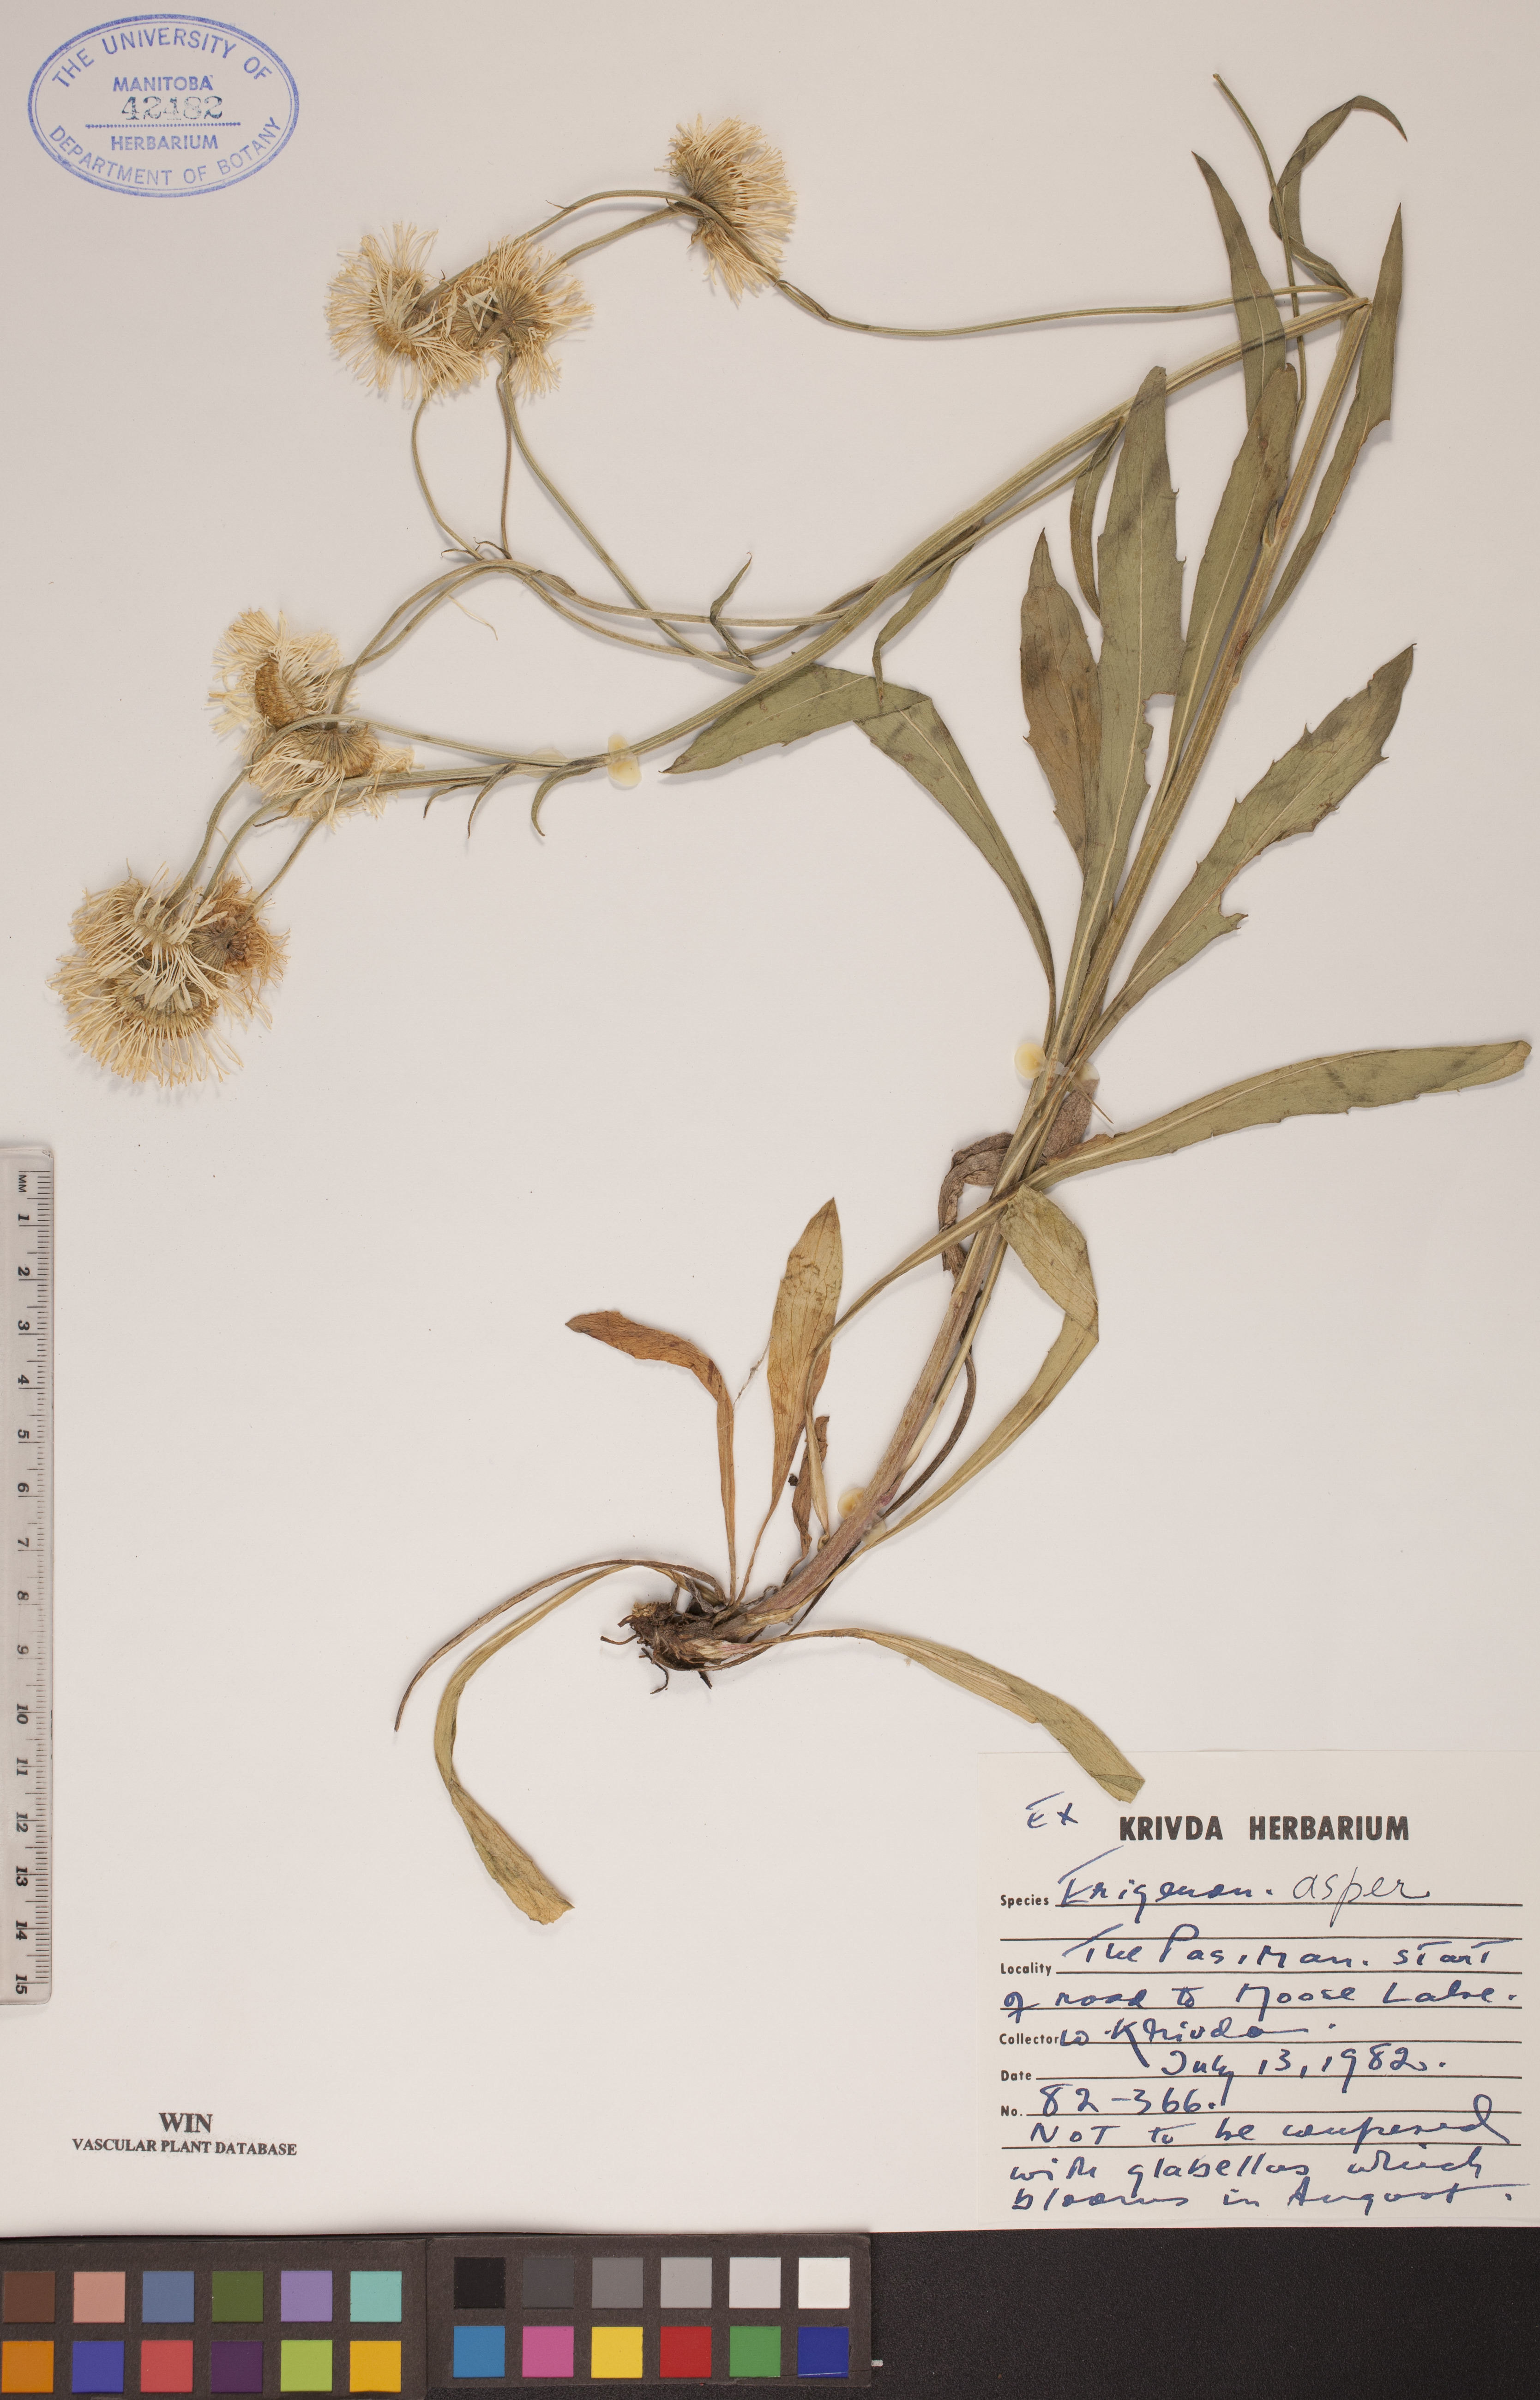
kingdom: Plantae
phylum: Tracheophyta
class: Magnoliopsida
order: Asterales
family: Asteraceae
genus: Erigeron
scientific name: Erigeron glabellus
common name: Smooth fleabane
